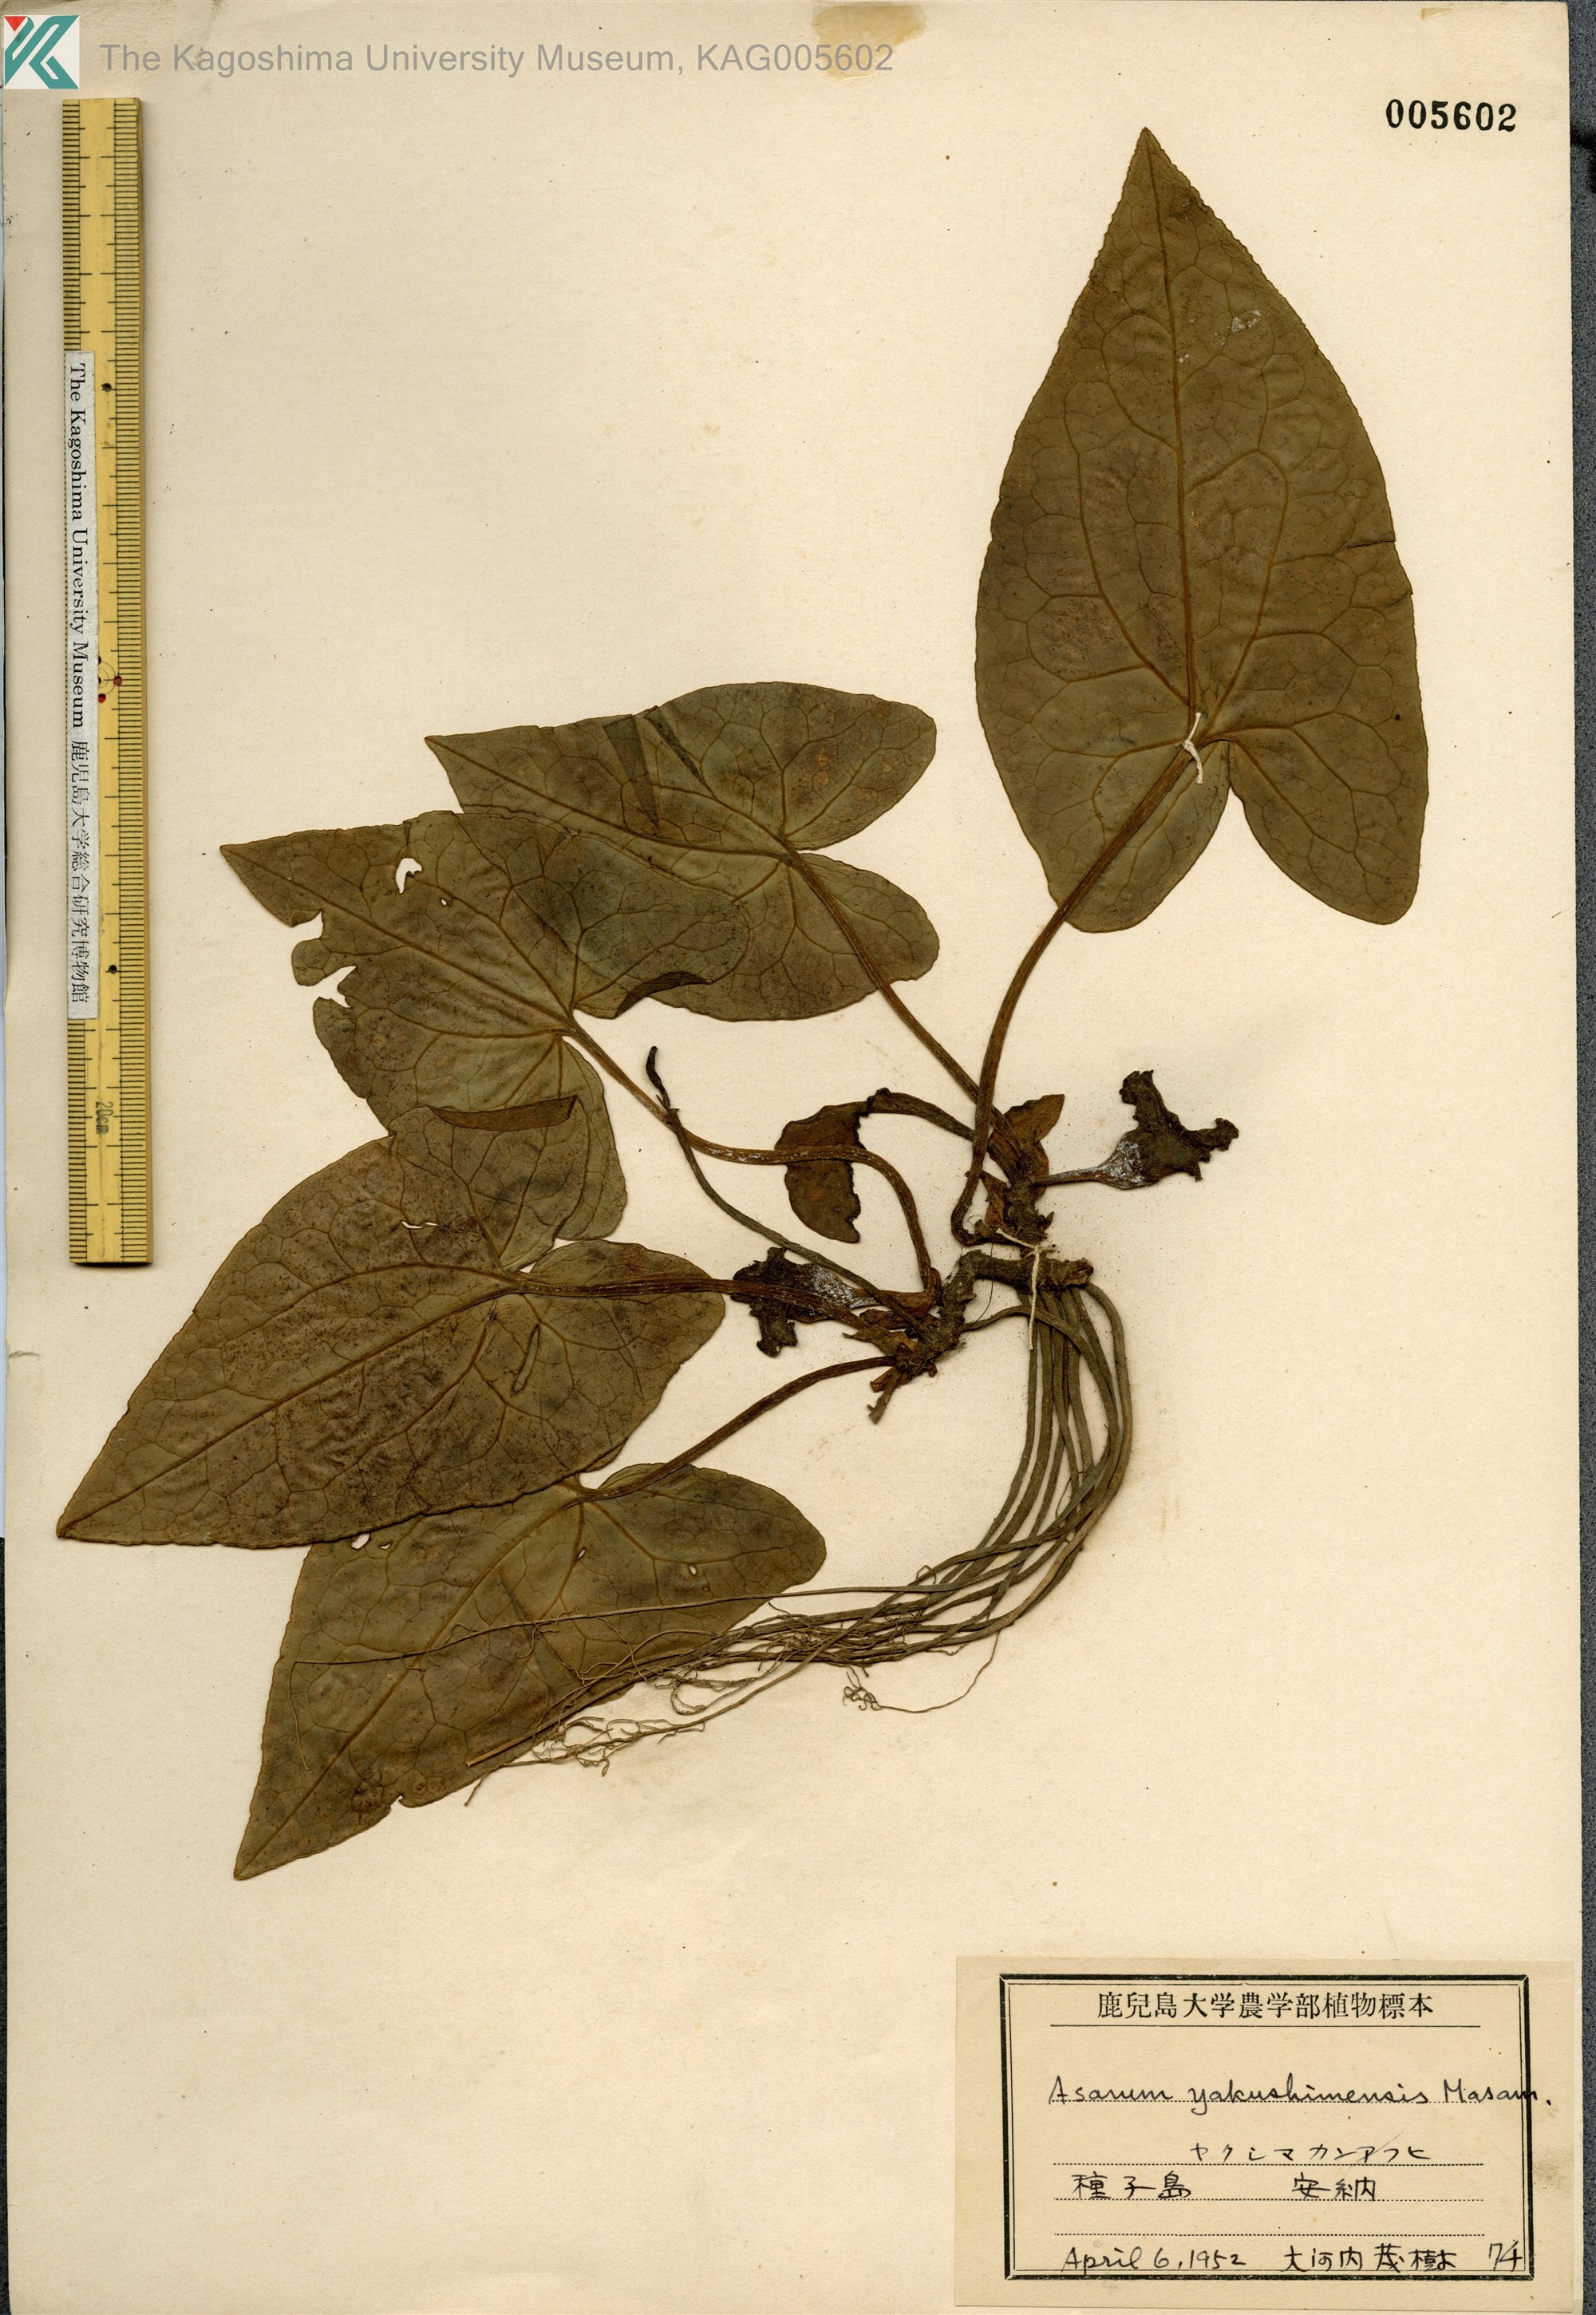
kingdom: Plantae
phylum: Tracheophyta
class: Magnoliopsida
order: Piperales
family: Aristolochiaceae
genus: Asarum
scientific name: Asarum kumageanum
